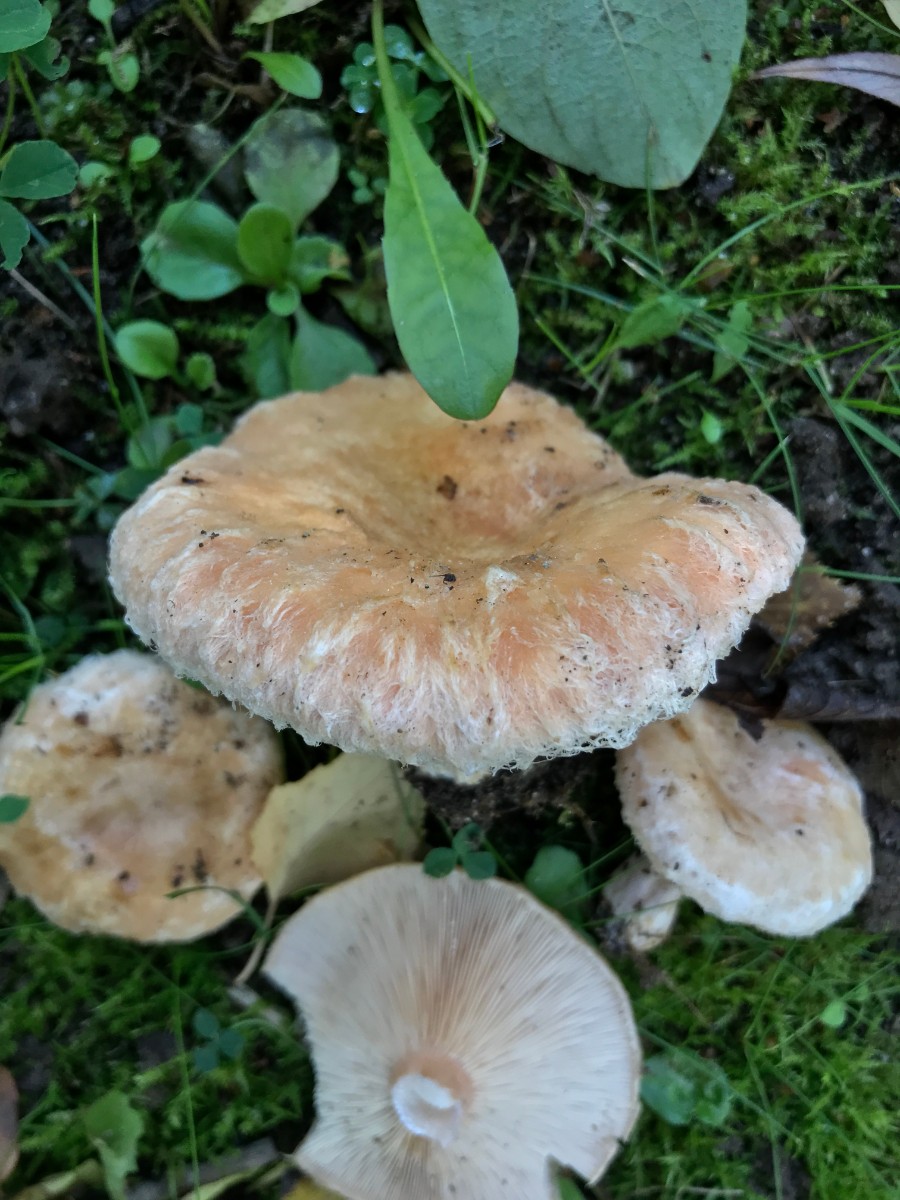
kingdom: Fungi
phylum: Basidiomycota
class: Agaricomycetes
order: Russulales
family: Russulaceae
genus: Lactarius
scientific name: Lactarius torminosus
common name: skægget mælkehat
